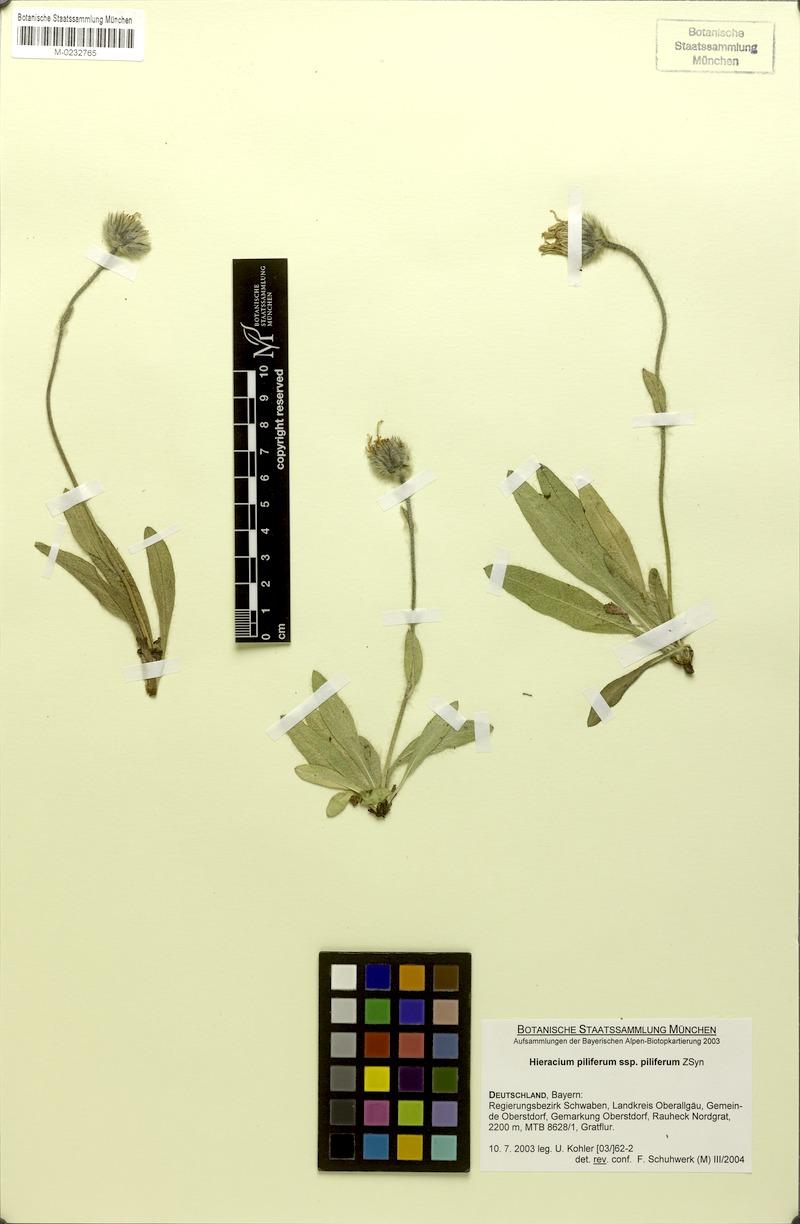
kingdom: Plantae
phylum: Tracheophyta
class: Magnoliopsida
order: Asterales
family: Asteraceae
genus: Hieracium
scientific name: Hieracium piliferum
